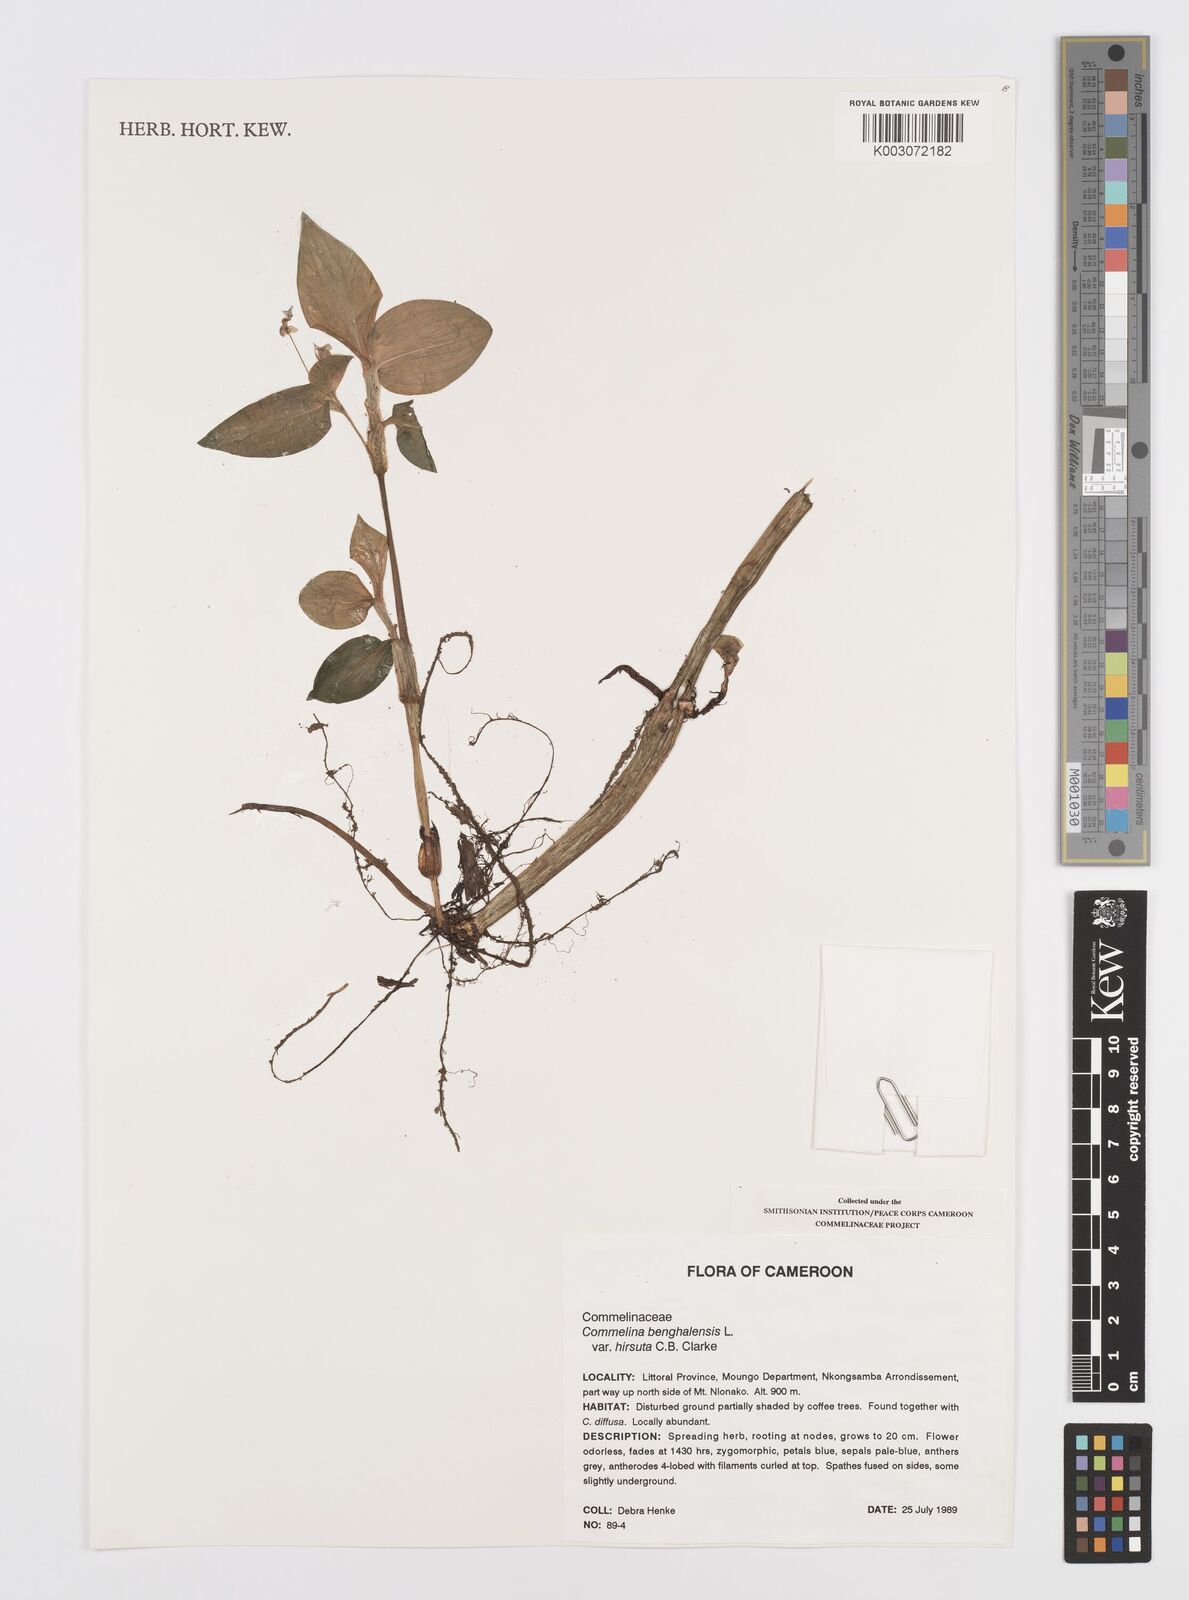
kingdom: Plantae
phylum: Tracheophyta
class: Liliopsida
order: Commelinales
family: Commelinaceae
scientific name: Commelinaceae
